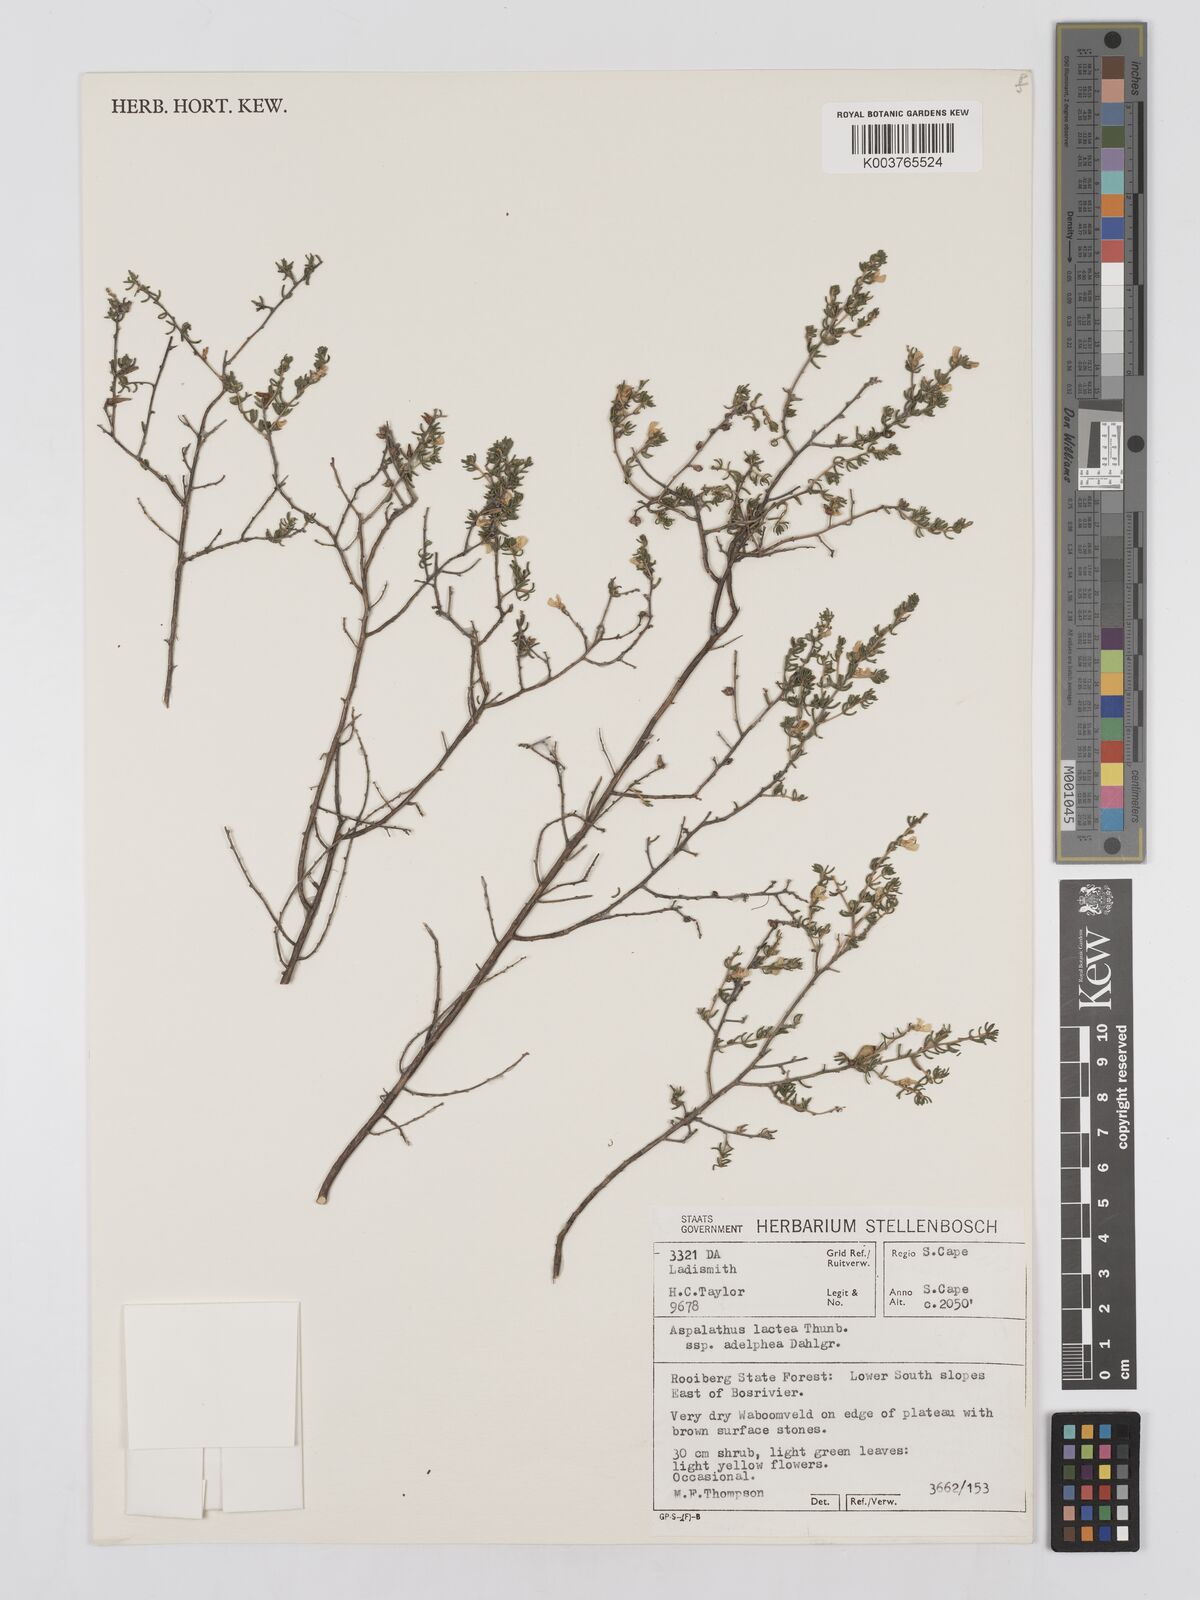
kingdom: Plantae
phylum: Tracheophyta
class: Magnoliopsida
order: Fabales
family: Fabaceae
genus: Aspalathus
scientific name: Aspalathus lactea
